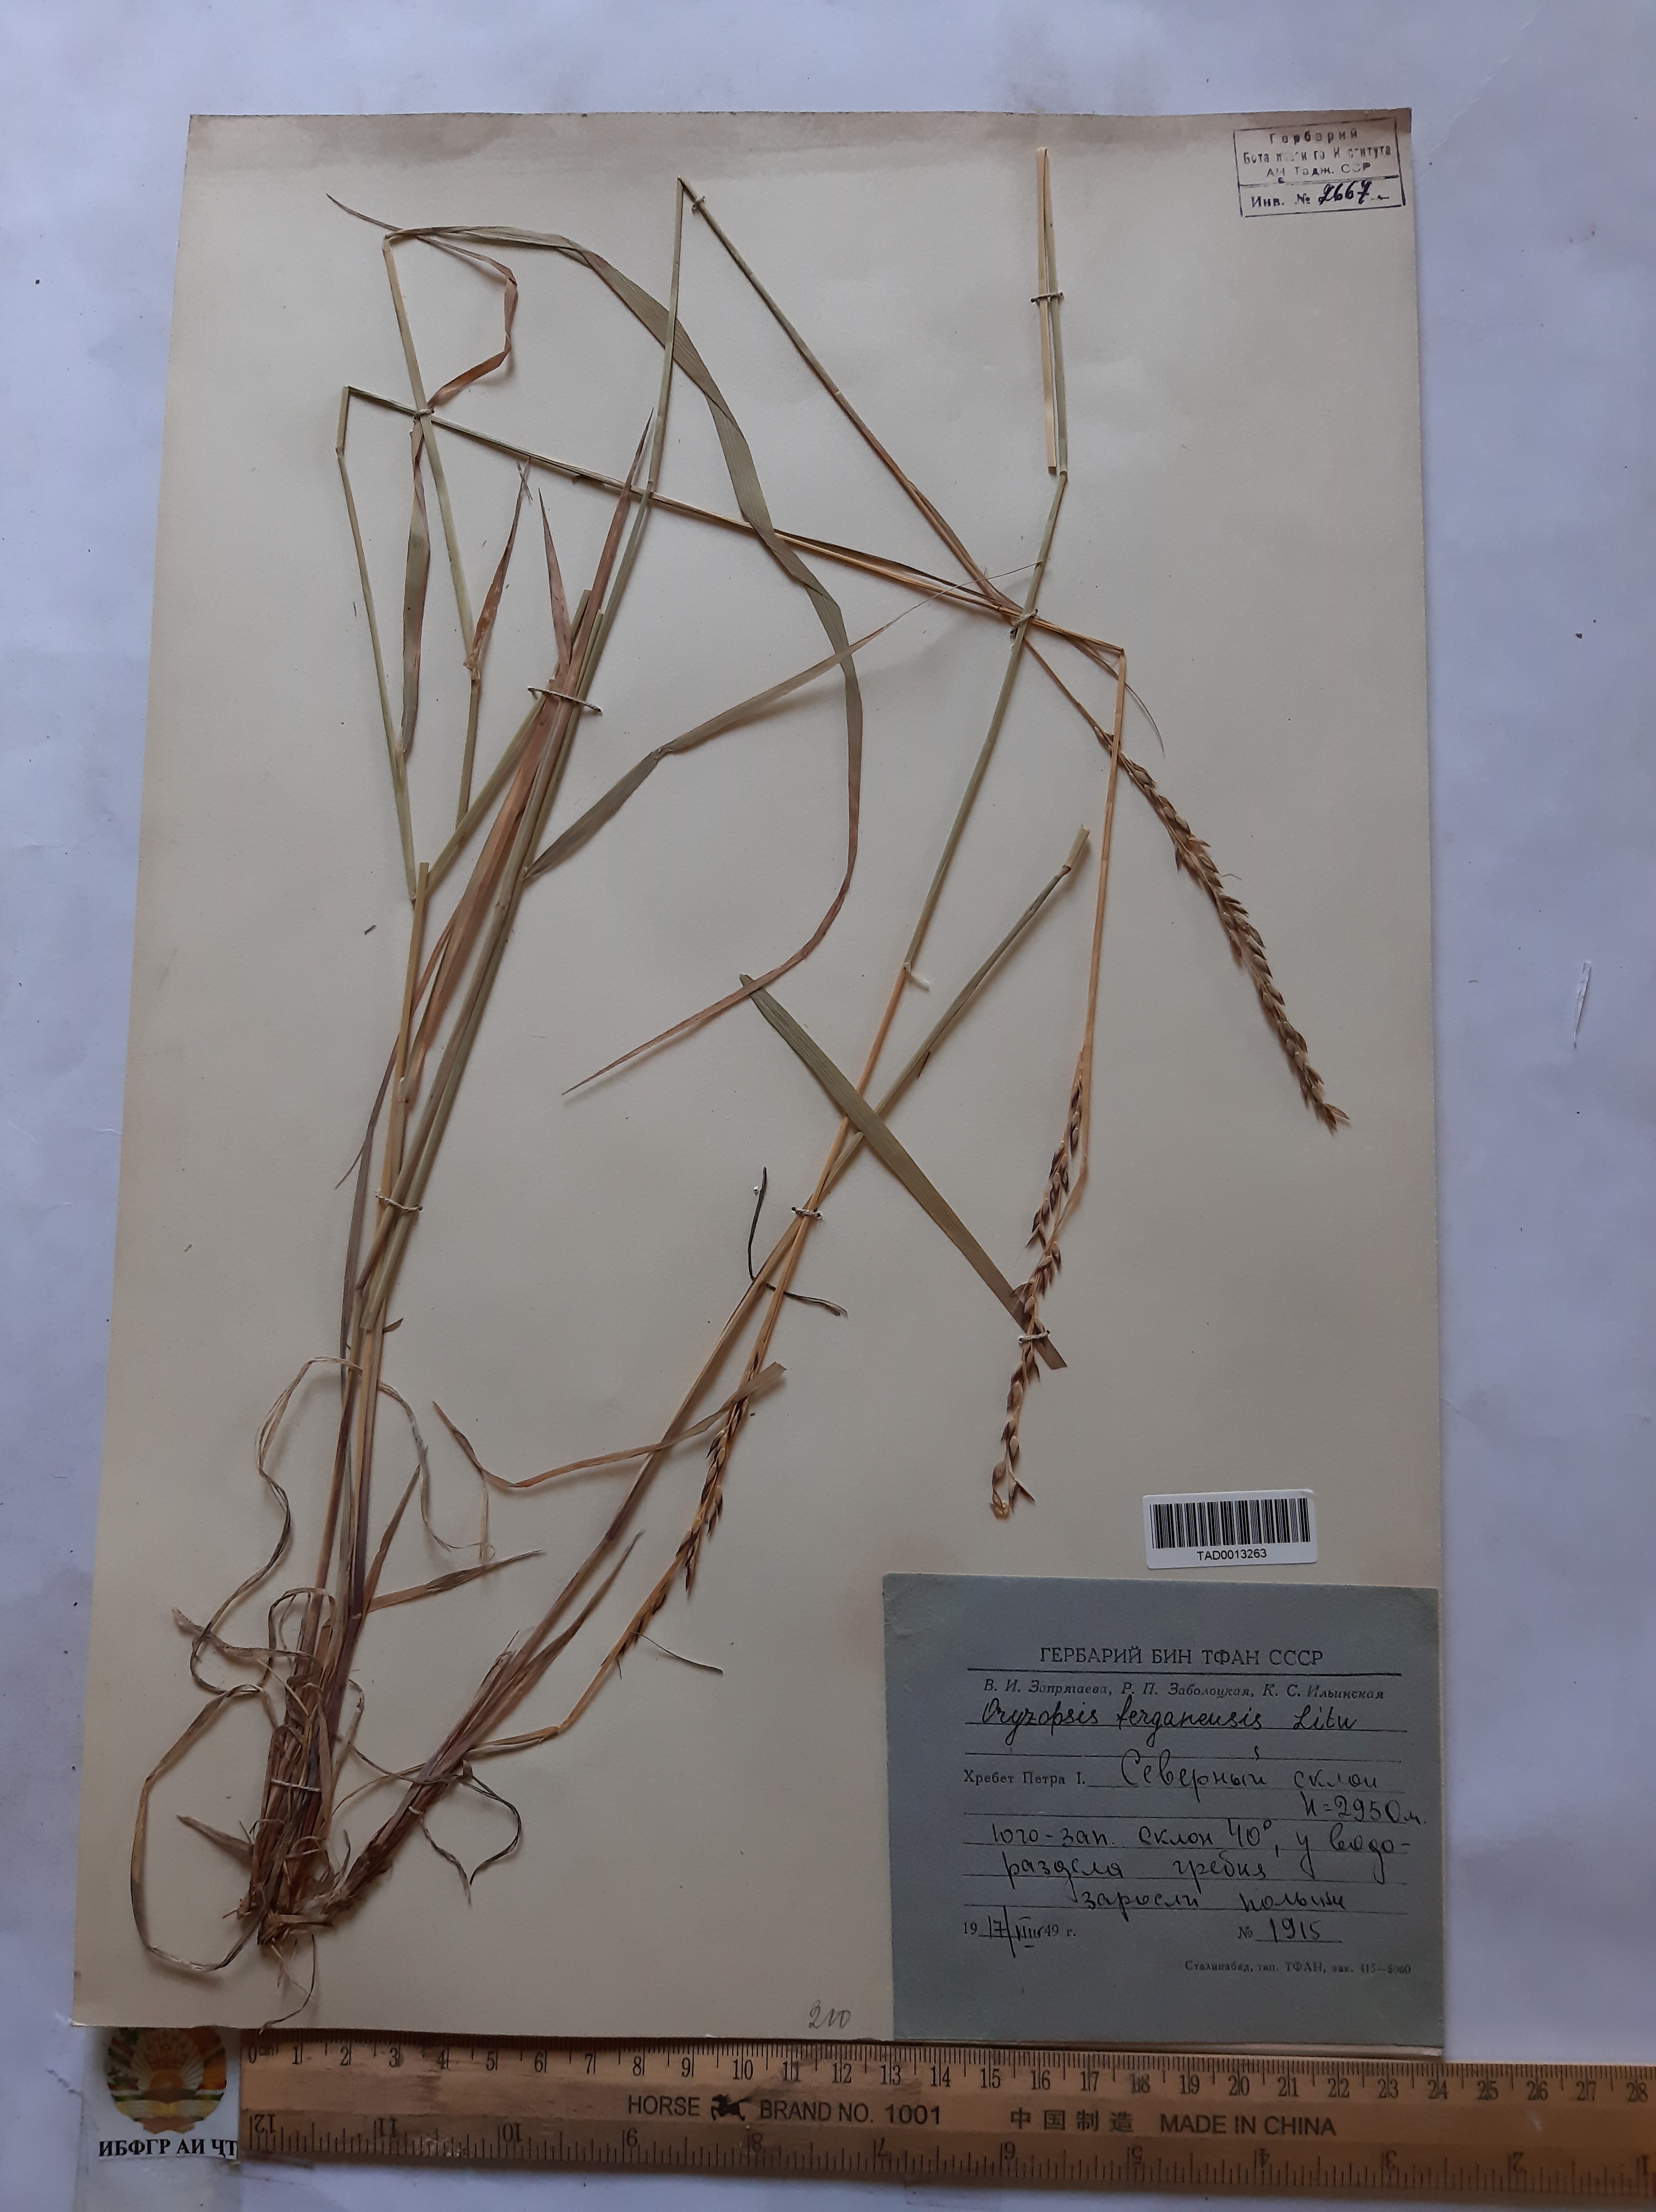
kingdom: Plantae
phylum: Tracheophyta
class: Liliopsida
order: Poales
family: Poaceae
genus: Piptatherum
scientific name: Piptatherum ferganense
